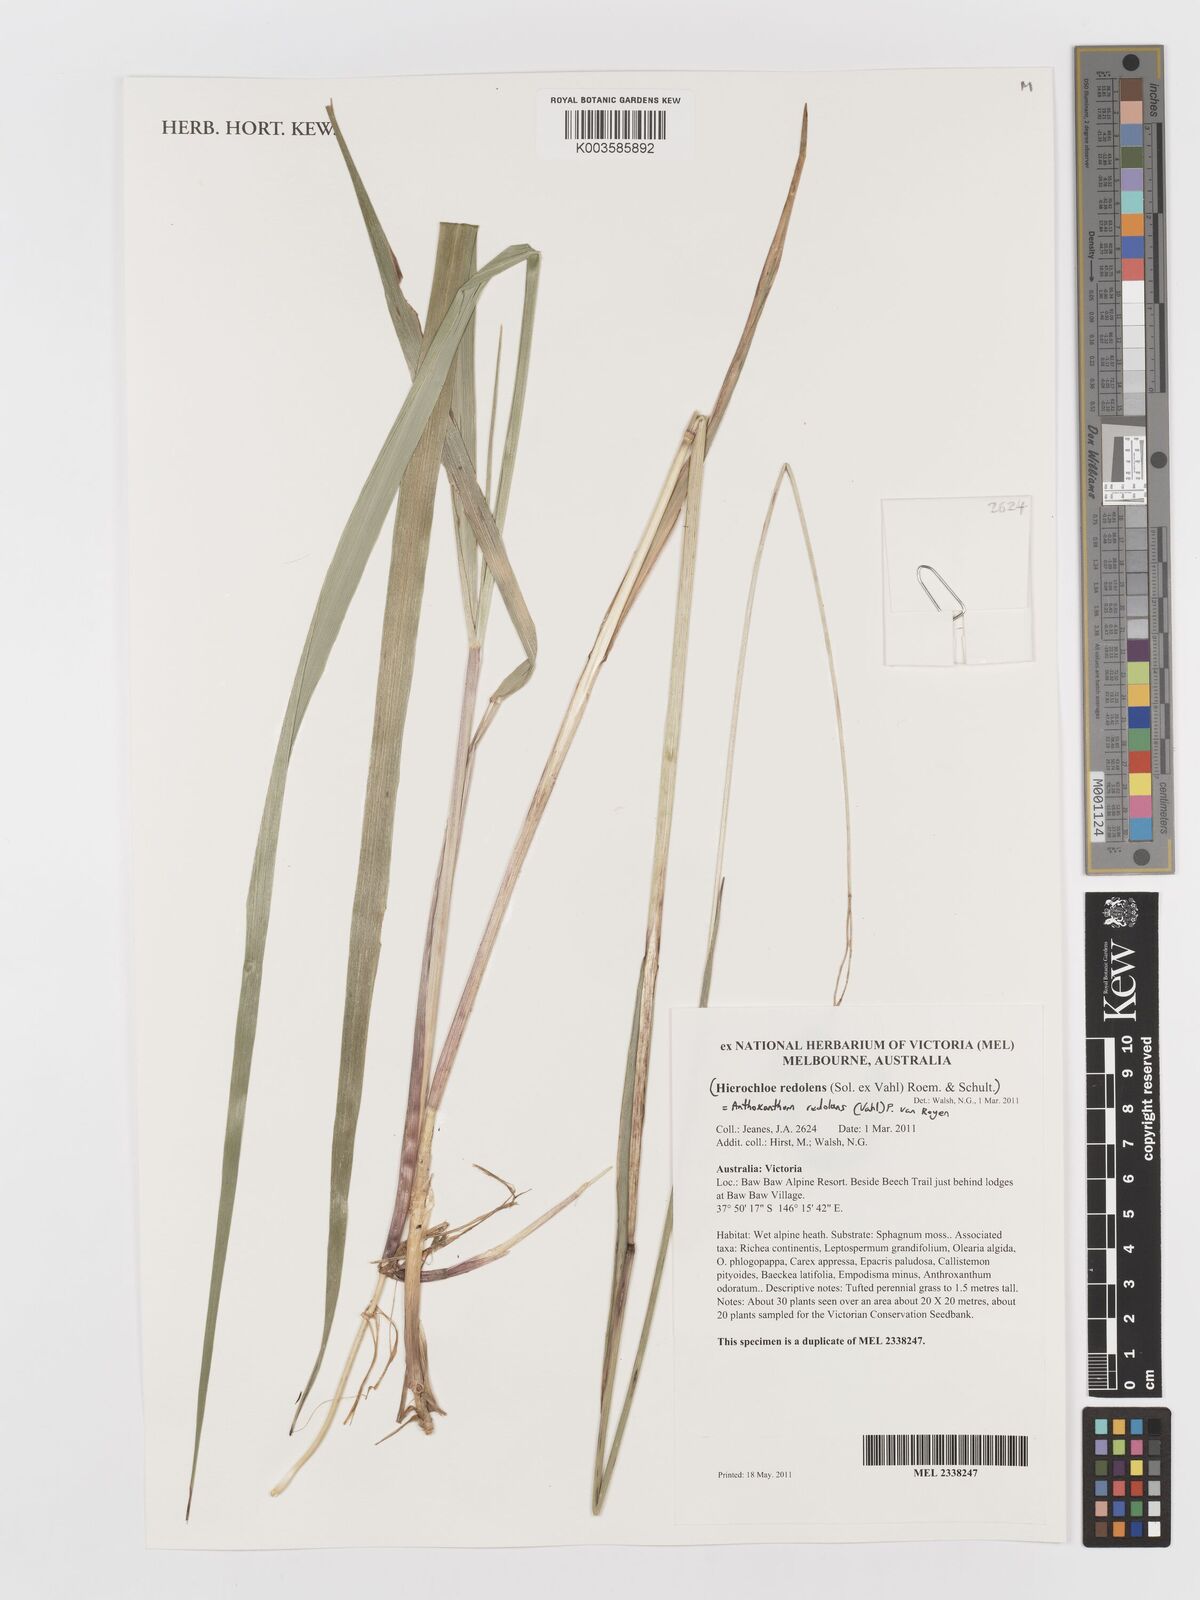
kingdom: Plantae
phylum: Tracheophyta
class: Liliopsida
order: Poales
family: Poaceae
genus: Anthoxanthum
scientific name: Anthoxanthum redolens
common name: Sweet holy grass
